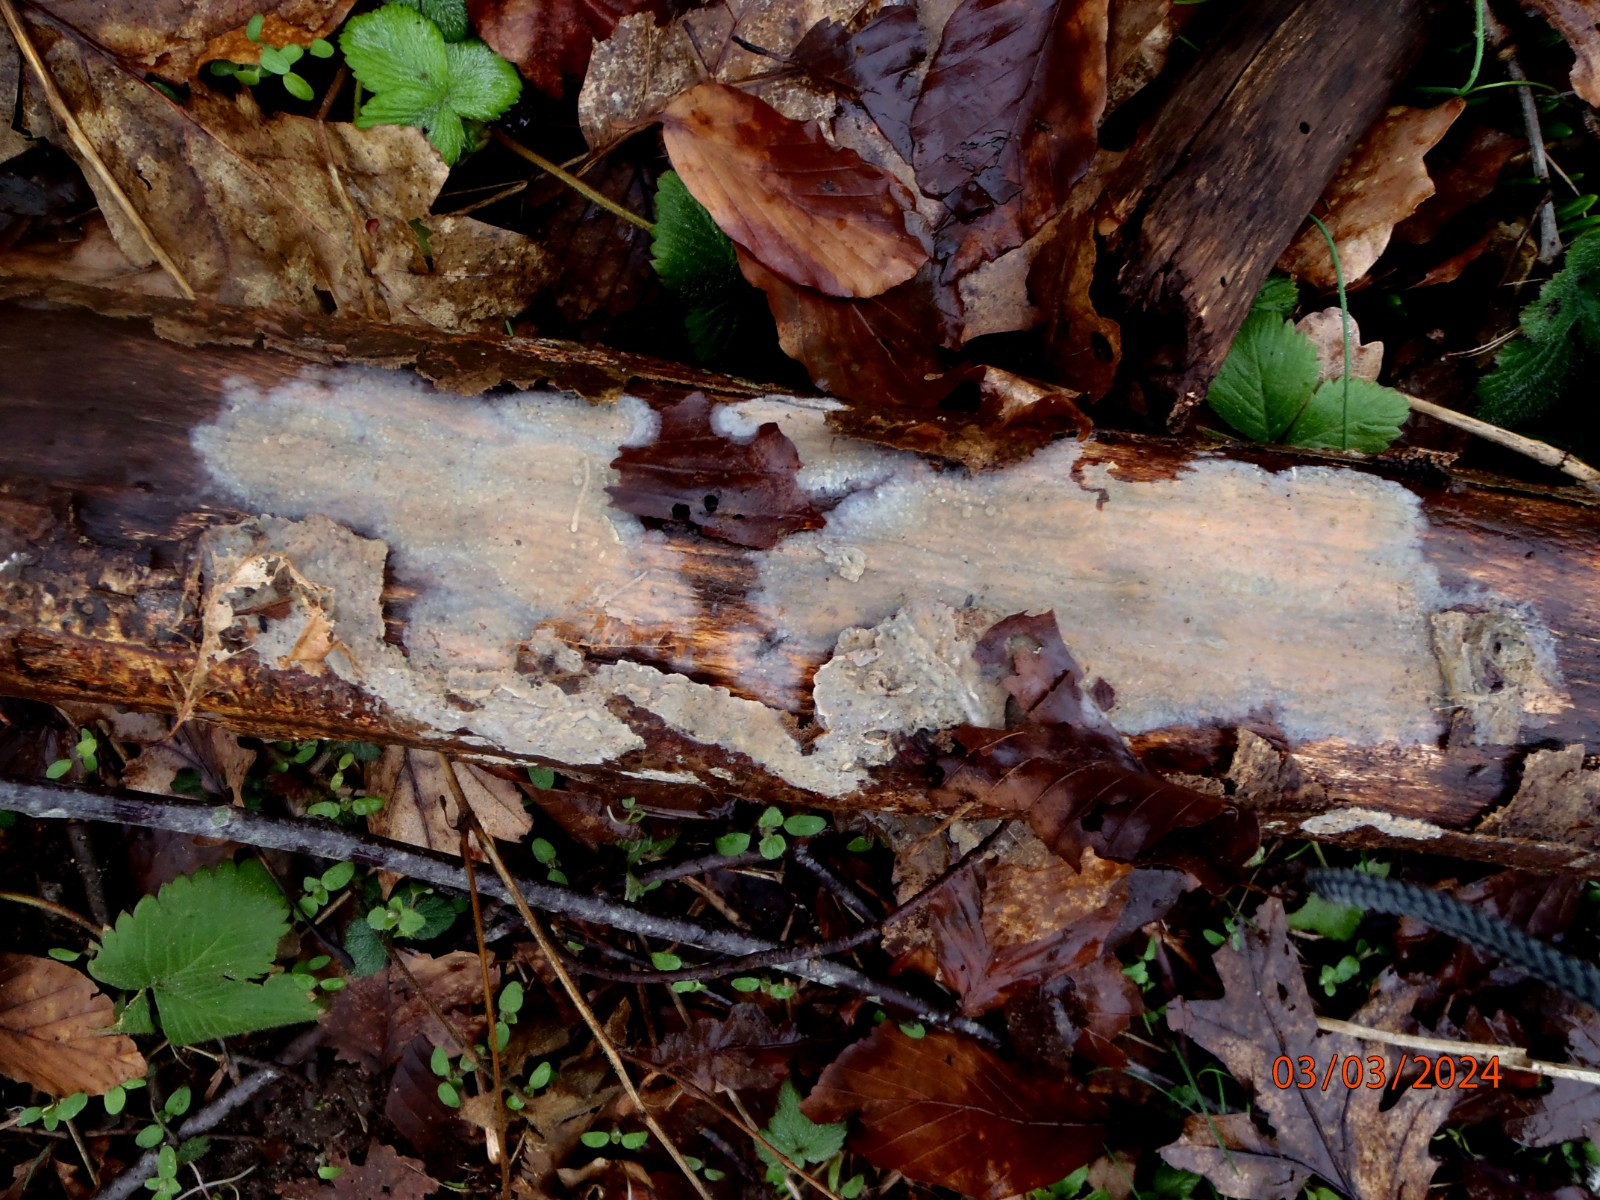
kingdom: Fungi
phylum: Basidiomycota
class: Agaricomycetes
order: Agaricales
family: Radulomycetaceae
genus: Radulomyces
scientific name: Radulomyces confluens
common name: glat naftalinskind
